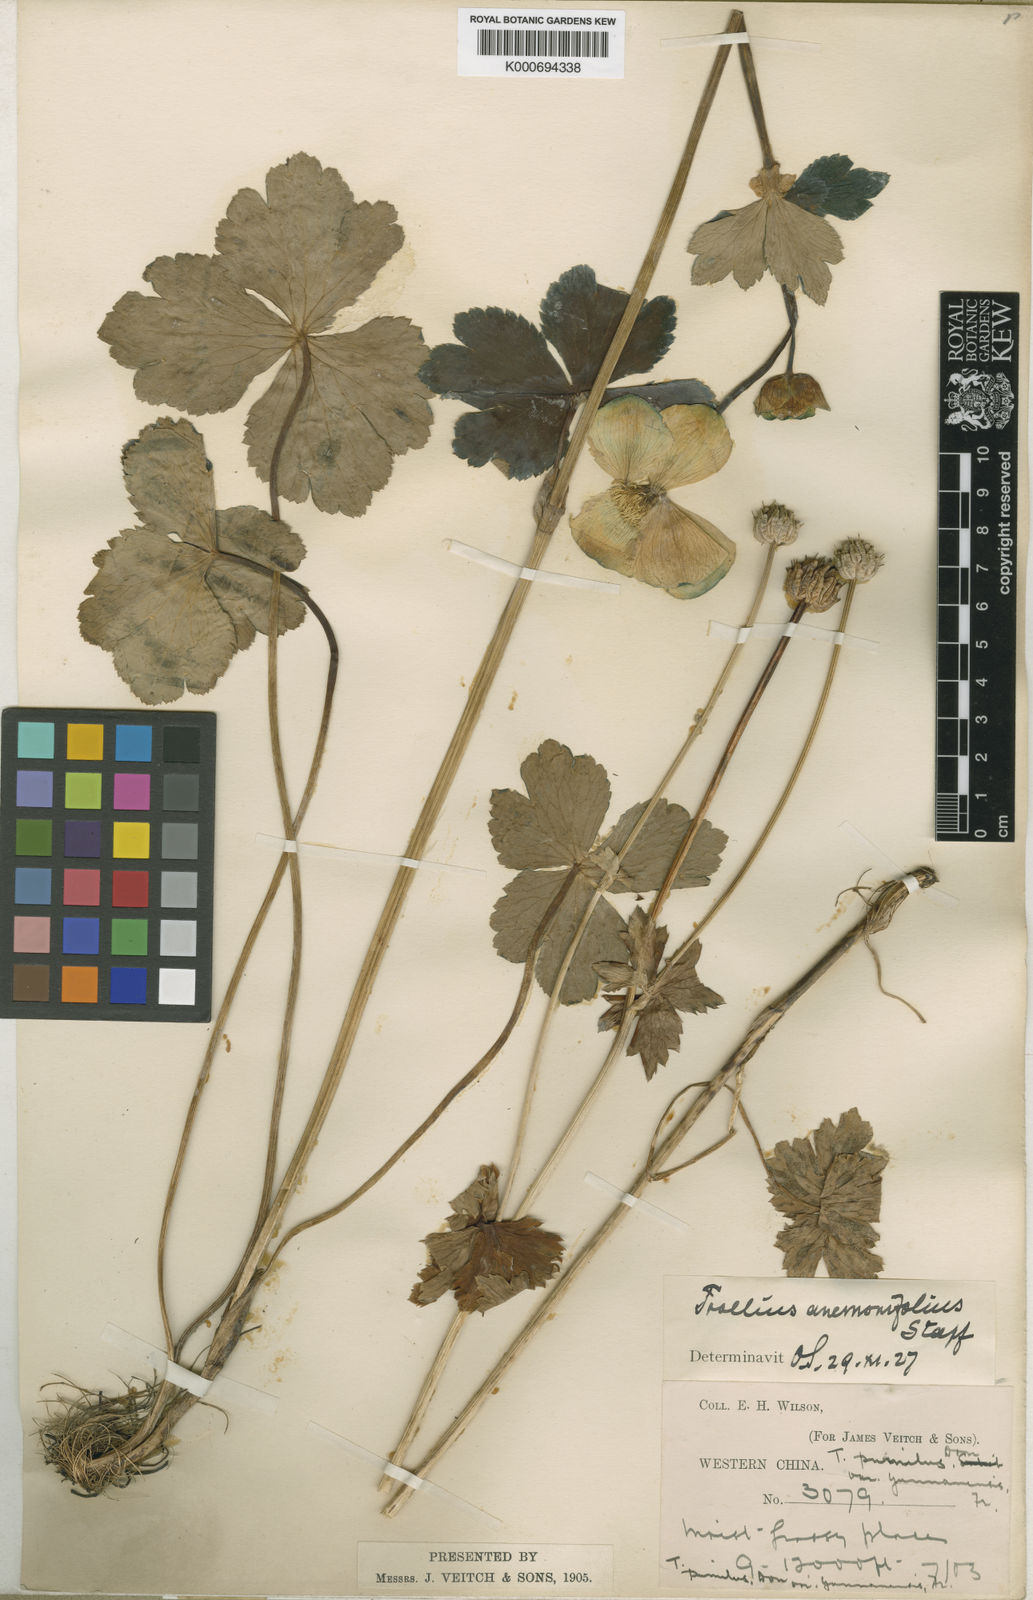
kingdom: Plantae
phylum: Tracheophyta
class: Magnoliopsida
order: Ranunculales
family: Ranunculaceae
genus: Trollius
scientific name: Trollius yunnanensis
